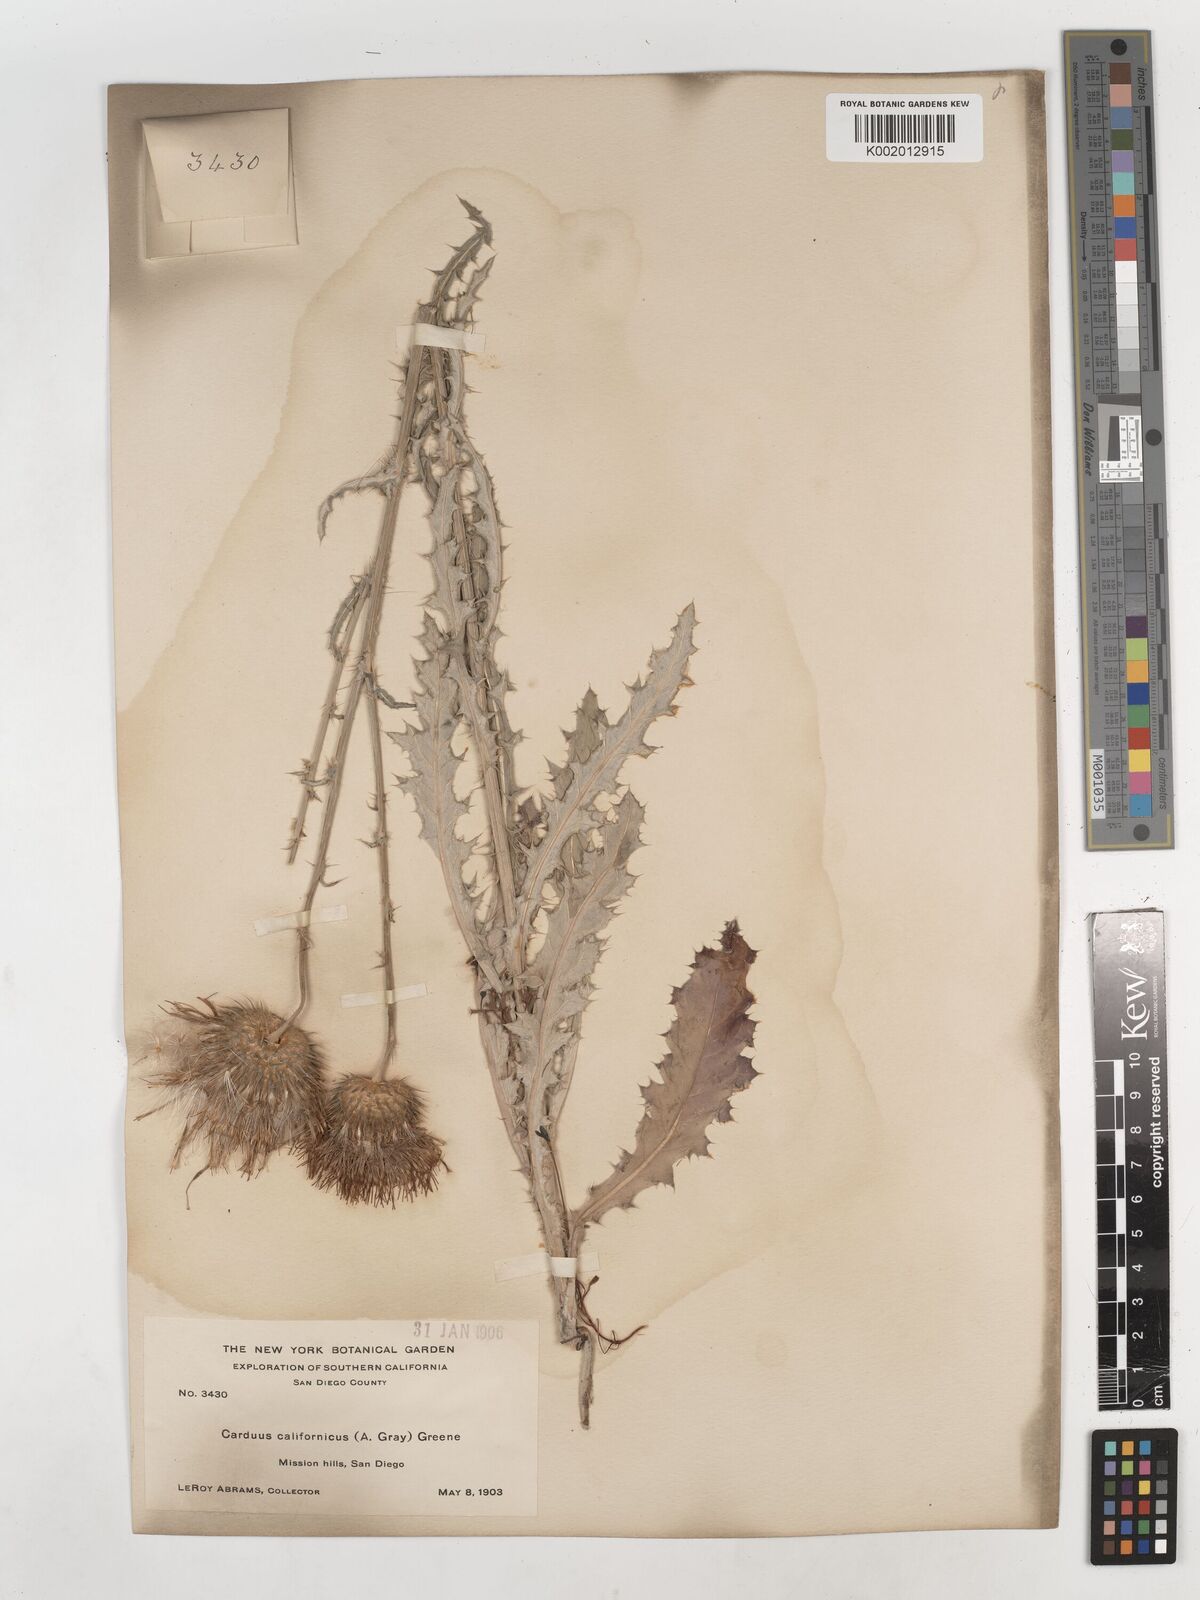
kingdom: Plantae
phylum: Tracheophyta
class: Magnoliopsida
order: Asterales
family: Asteraceae
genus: Cirsium
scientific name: Cirsium occidentale
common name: Western thistle
